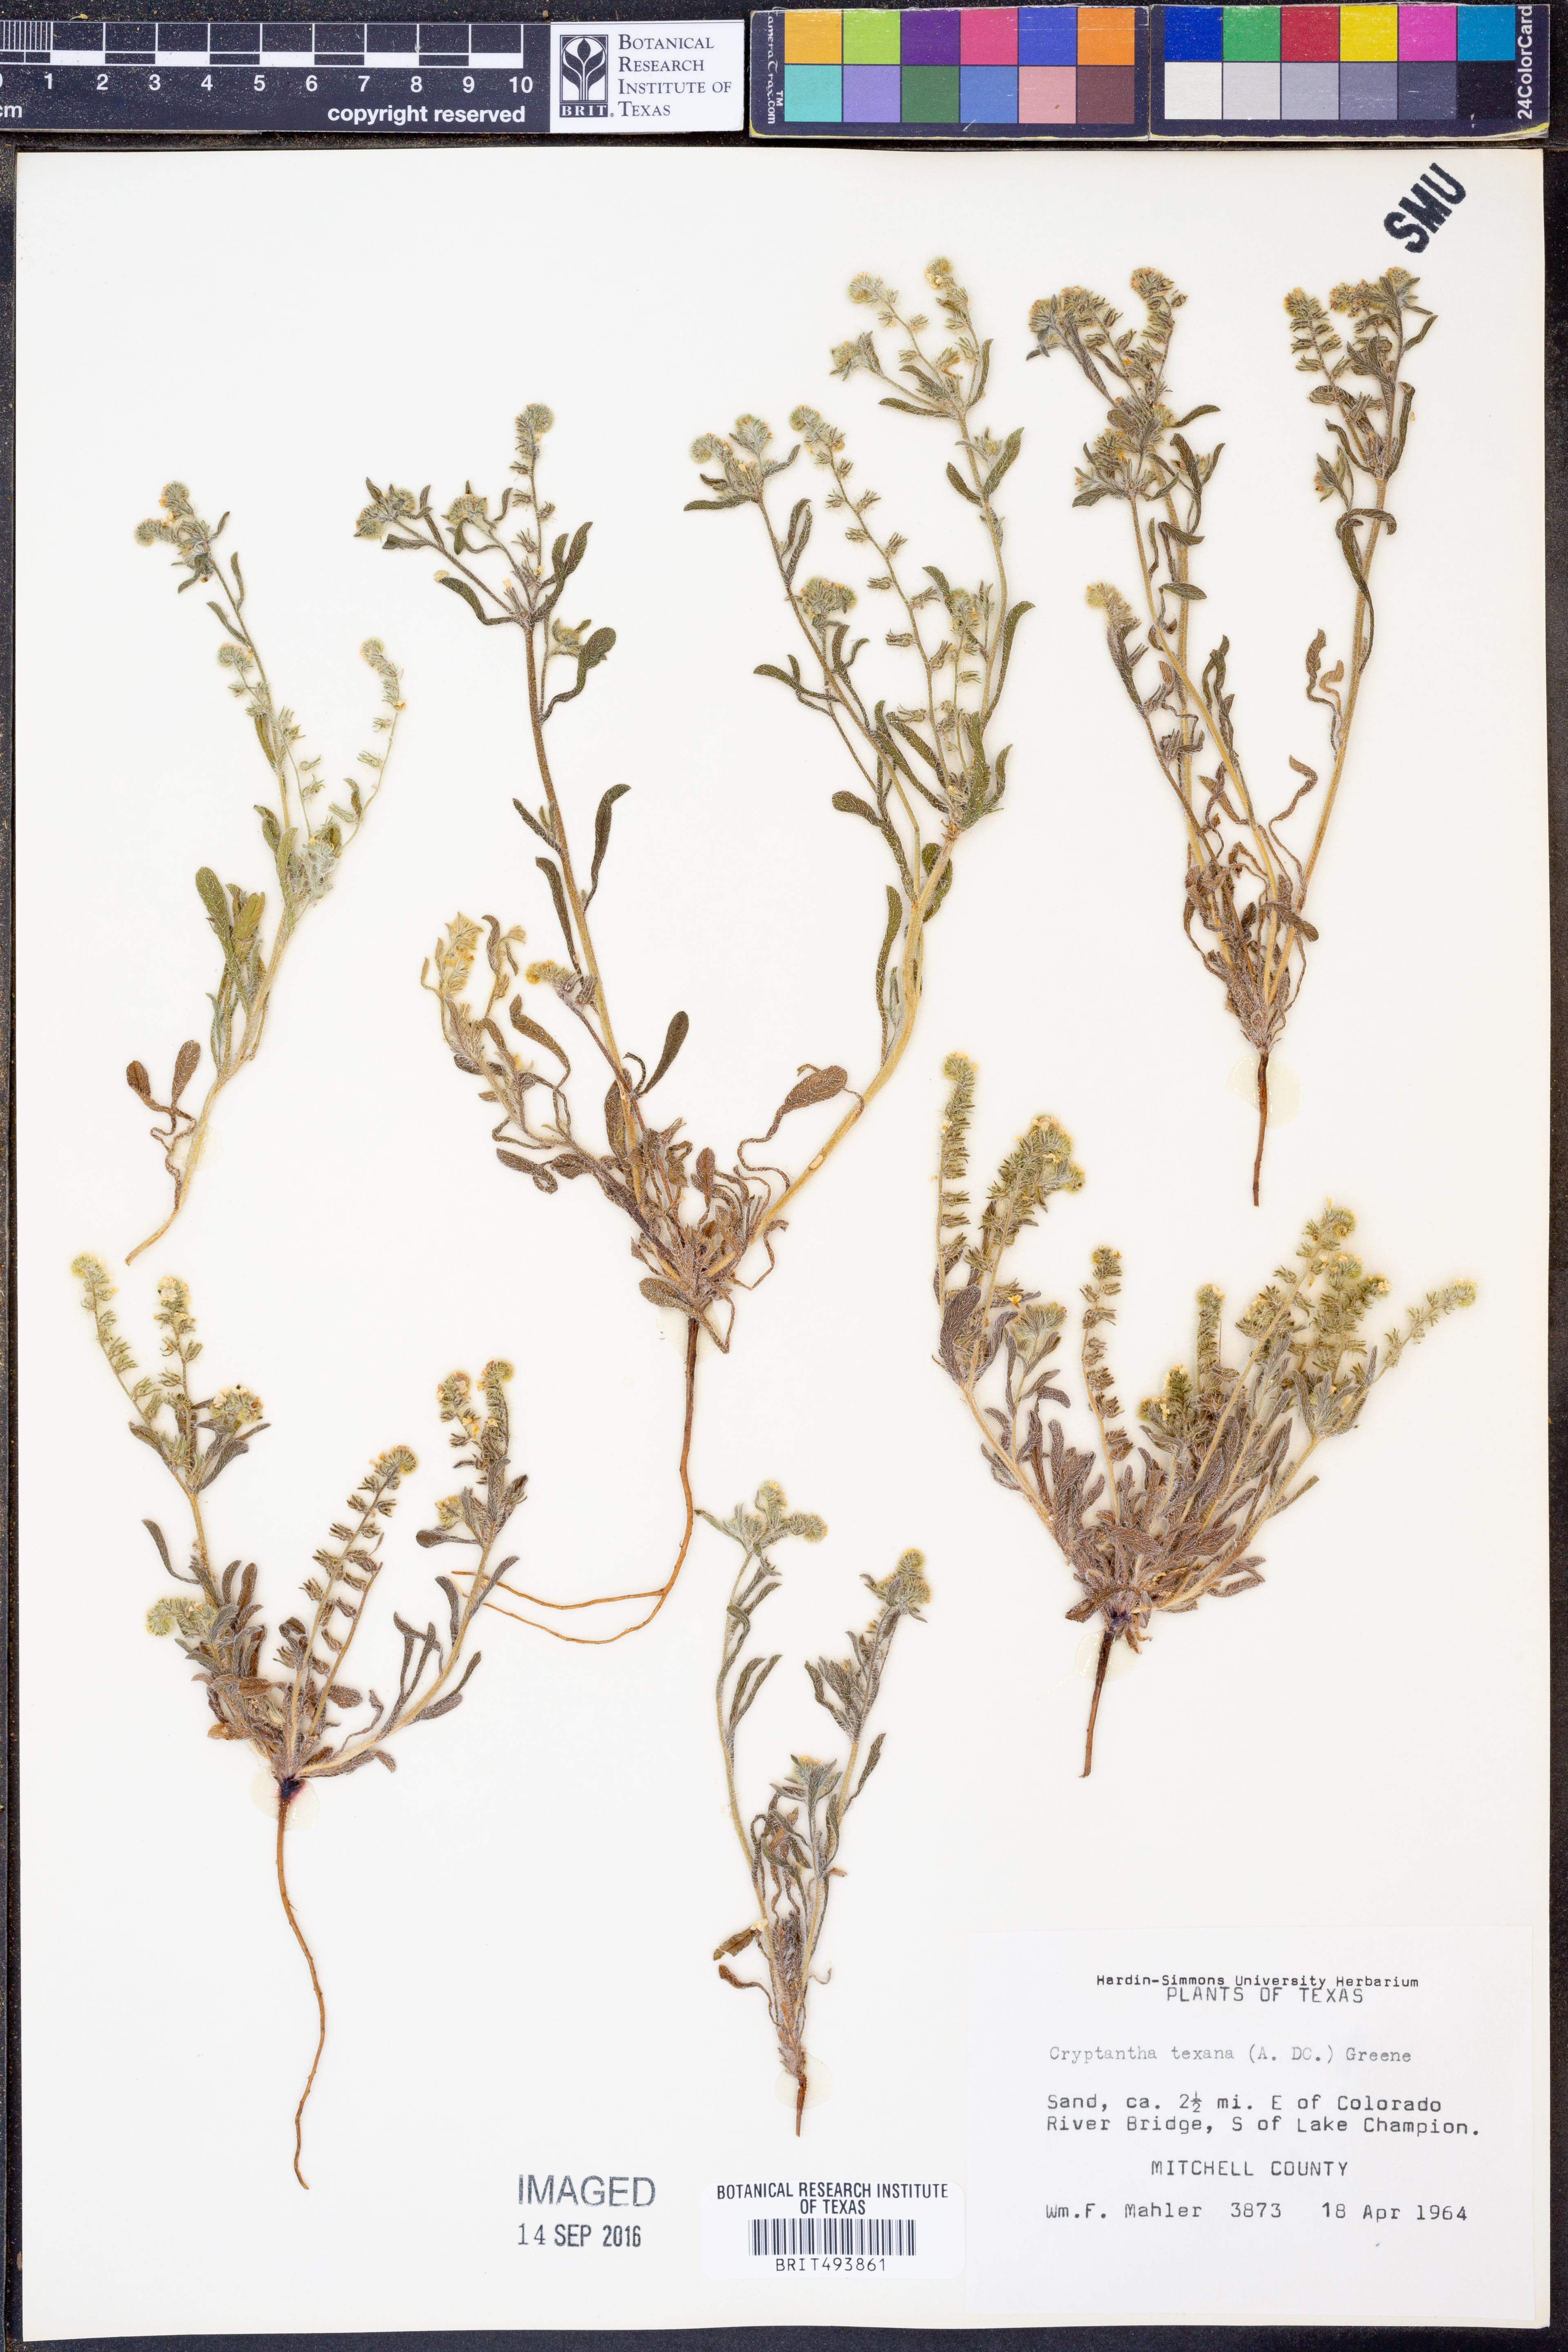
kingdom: Plantae
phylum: Tracheophyta
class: Magnoliopsida
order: Boraginales
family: Boraginaceae
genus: Cryptantha
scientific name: Cryptantha texana
